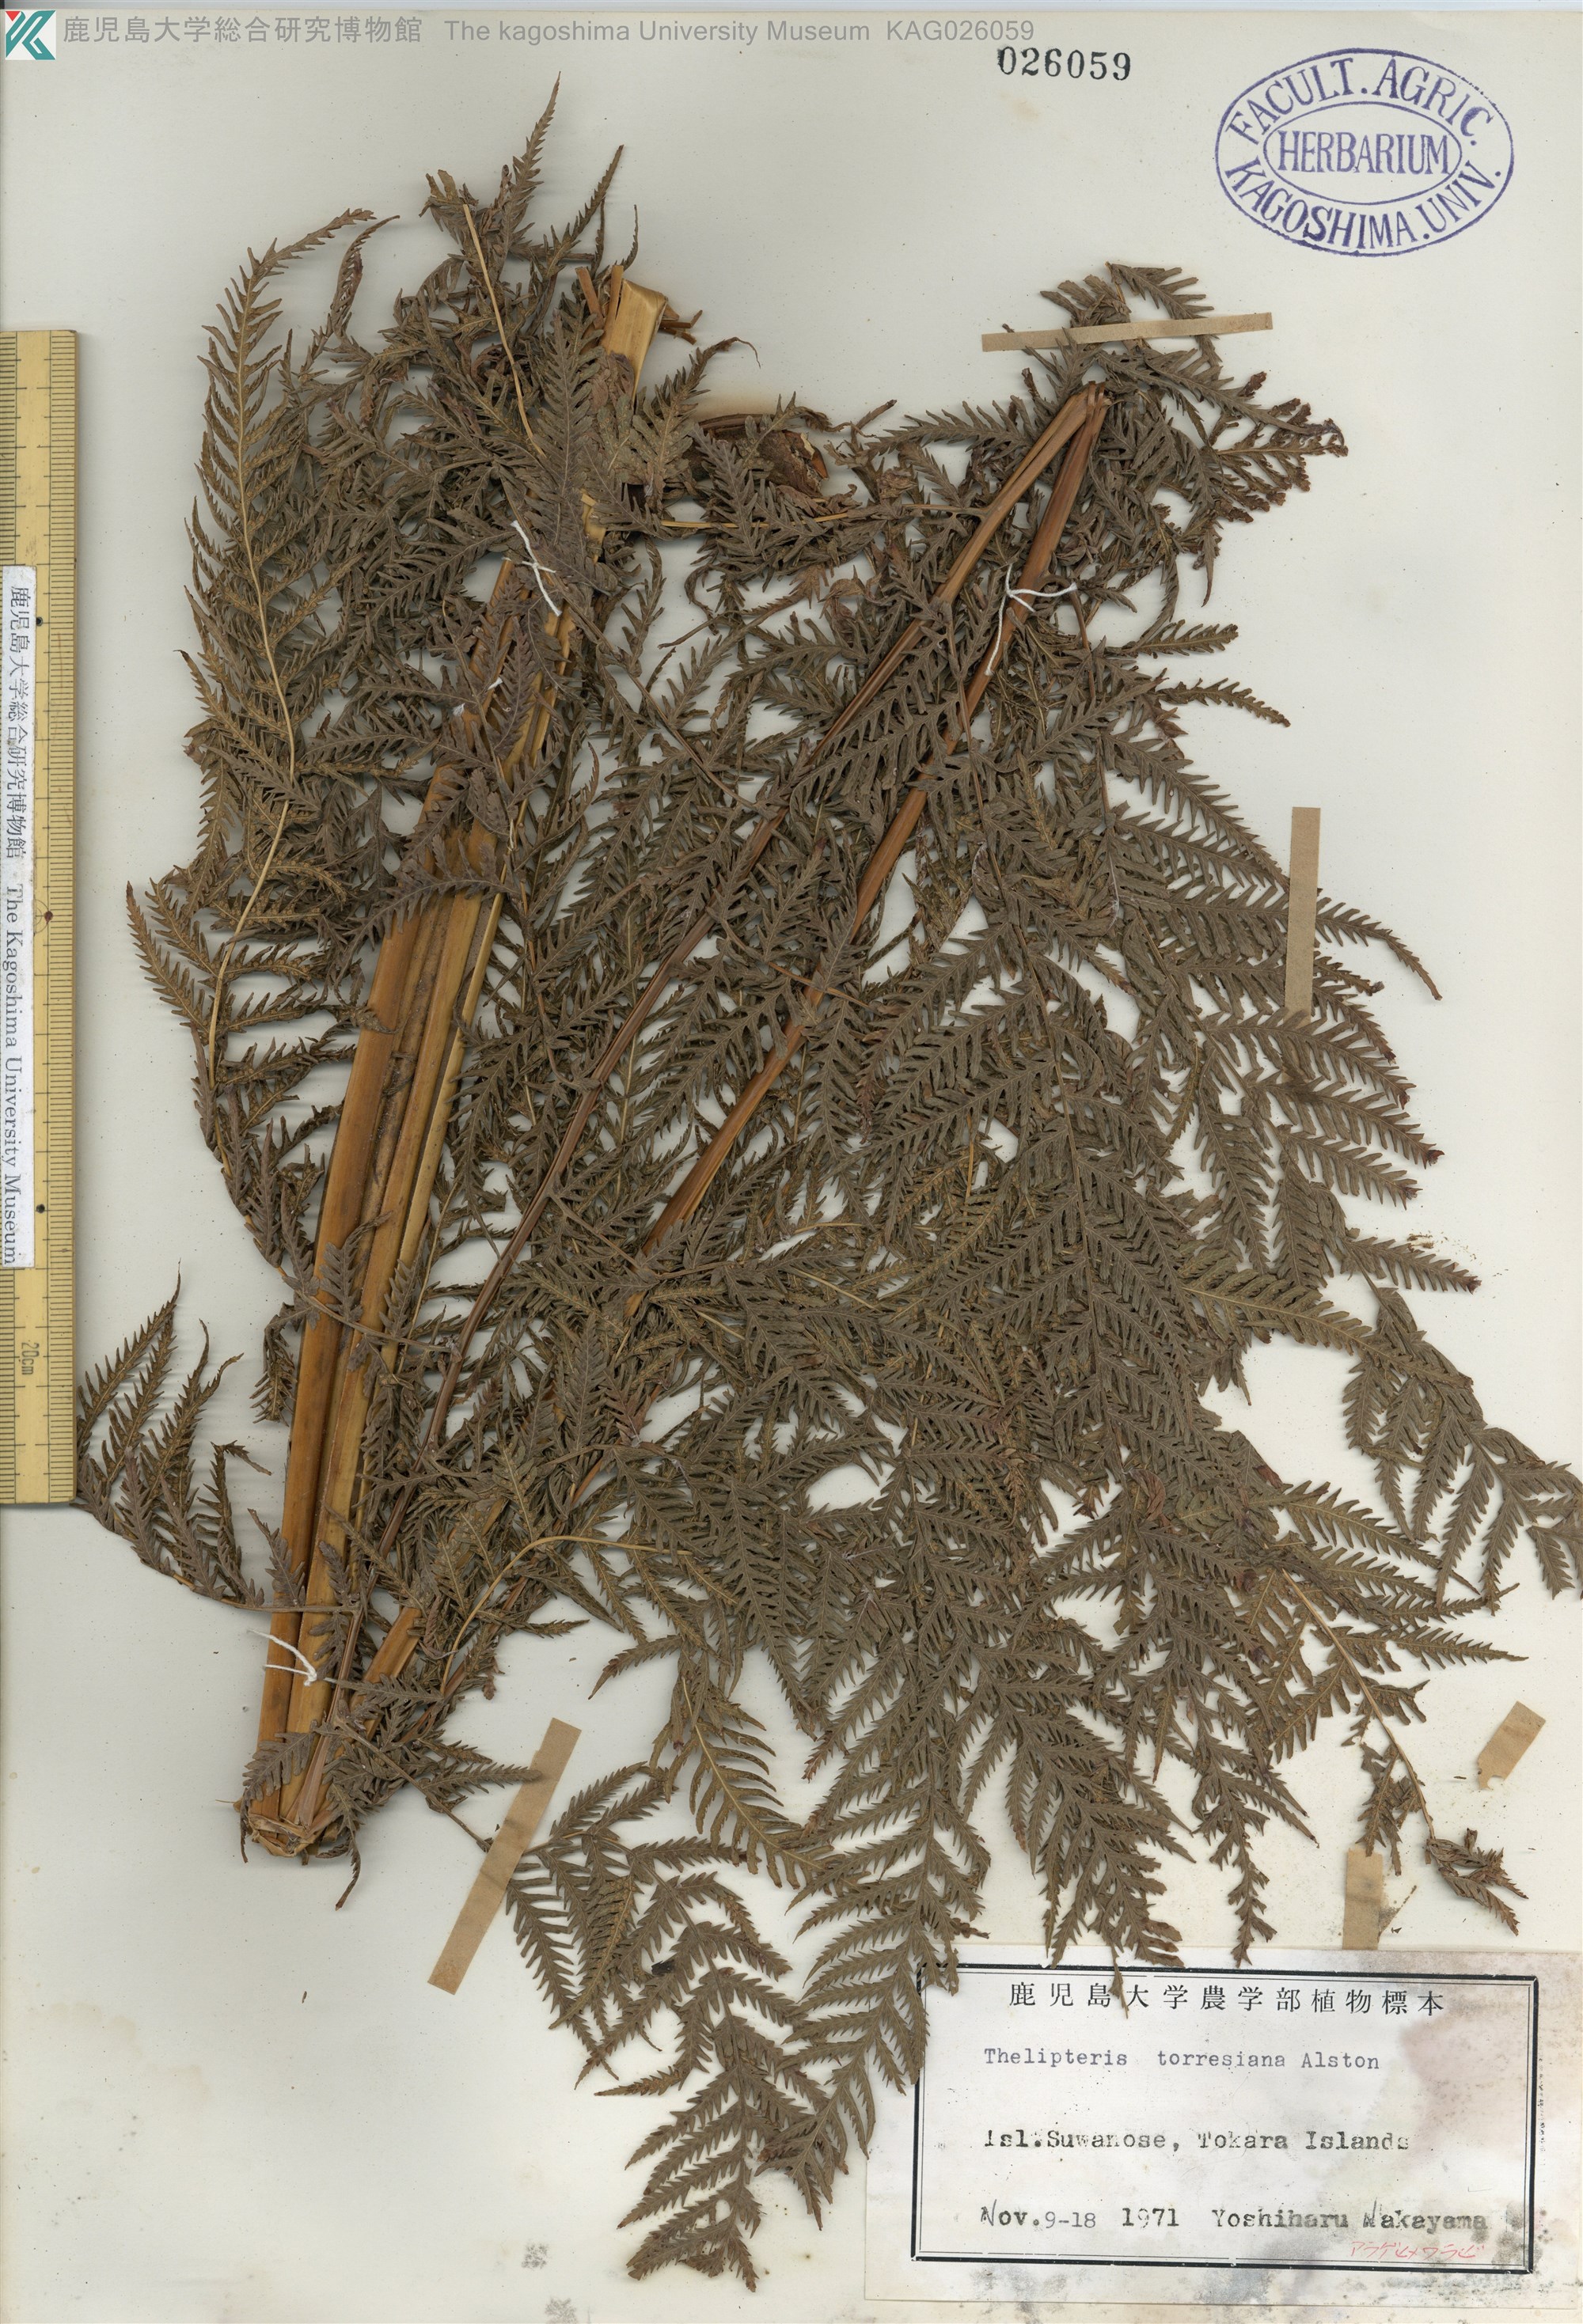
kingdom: Plantae
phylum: Tracheophyta
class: Polypodiopsida
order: Polypodiales
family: Thelypteridaceae
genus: Macrothelypteris
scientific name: Macrothelypteris oligophlebia
